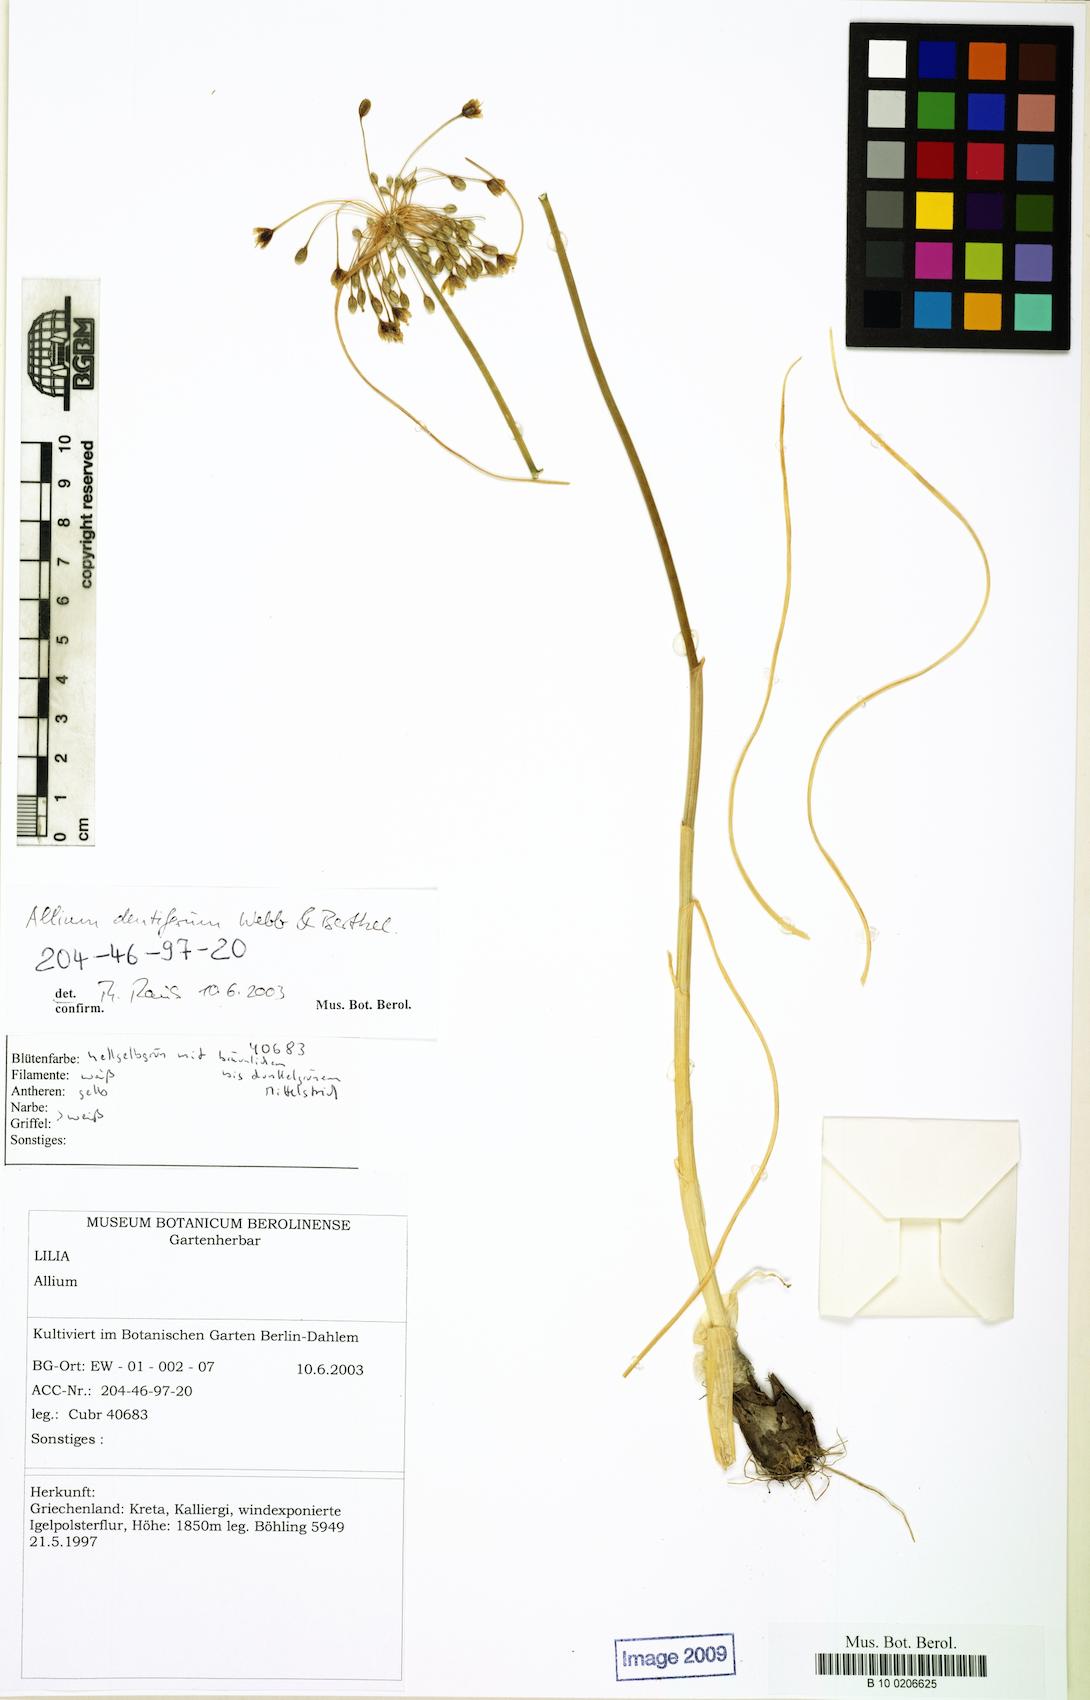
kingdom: Plantae
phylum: Tracheophyta
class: Liliopsida
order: Asparagales
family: Amaryllidaceae
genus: Allium
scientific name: Allium longispathum
